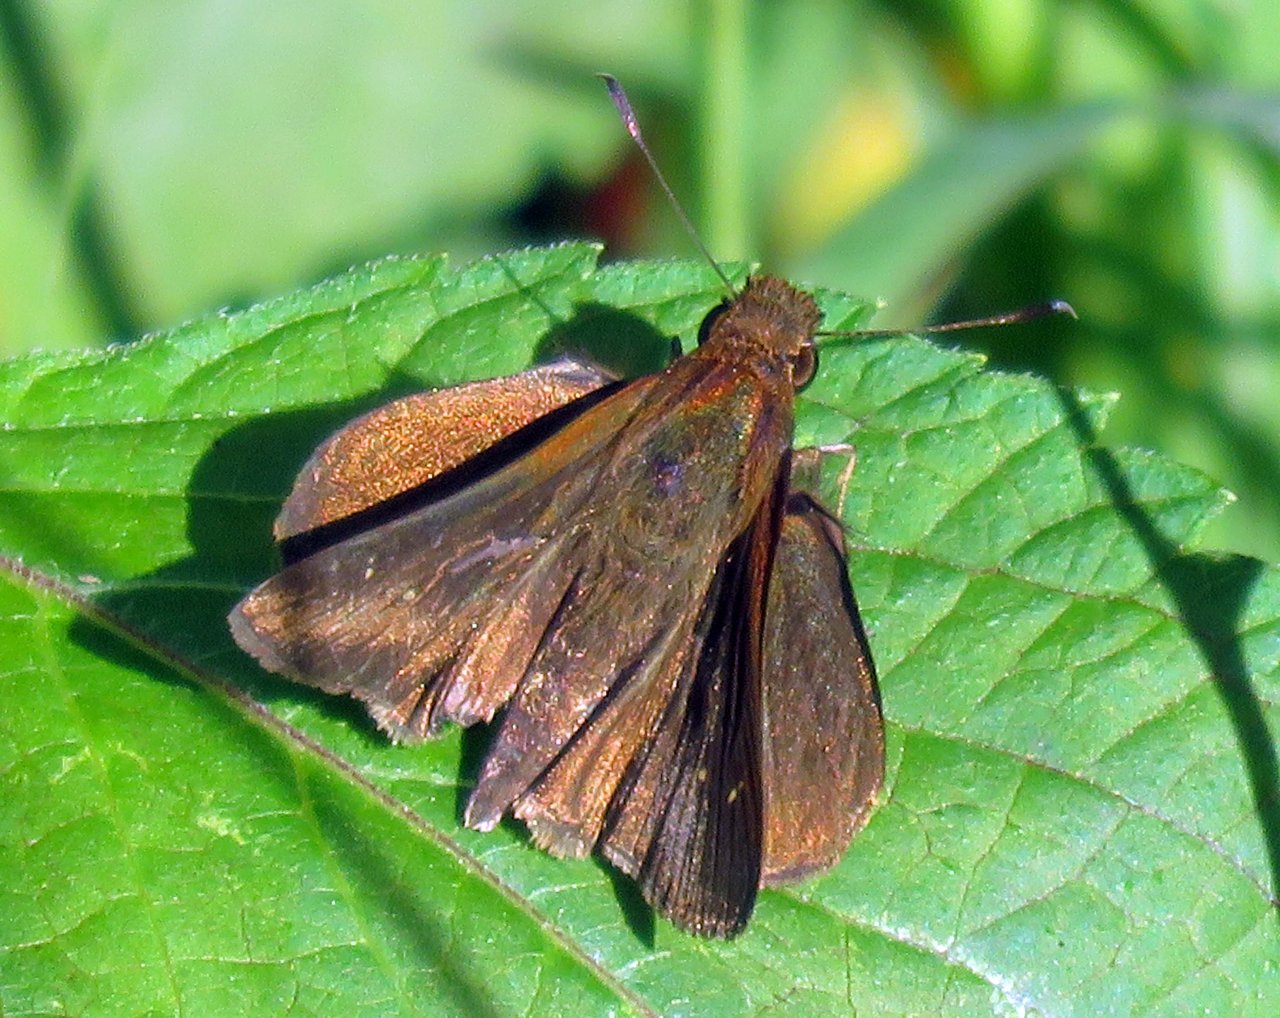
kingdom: Animalia
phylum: Arthropoda
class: Insecta
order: Lepidoptera
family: Hesperiidae
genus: Euphyes
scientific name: Euphyes vestris
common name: Dun Skipper
